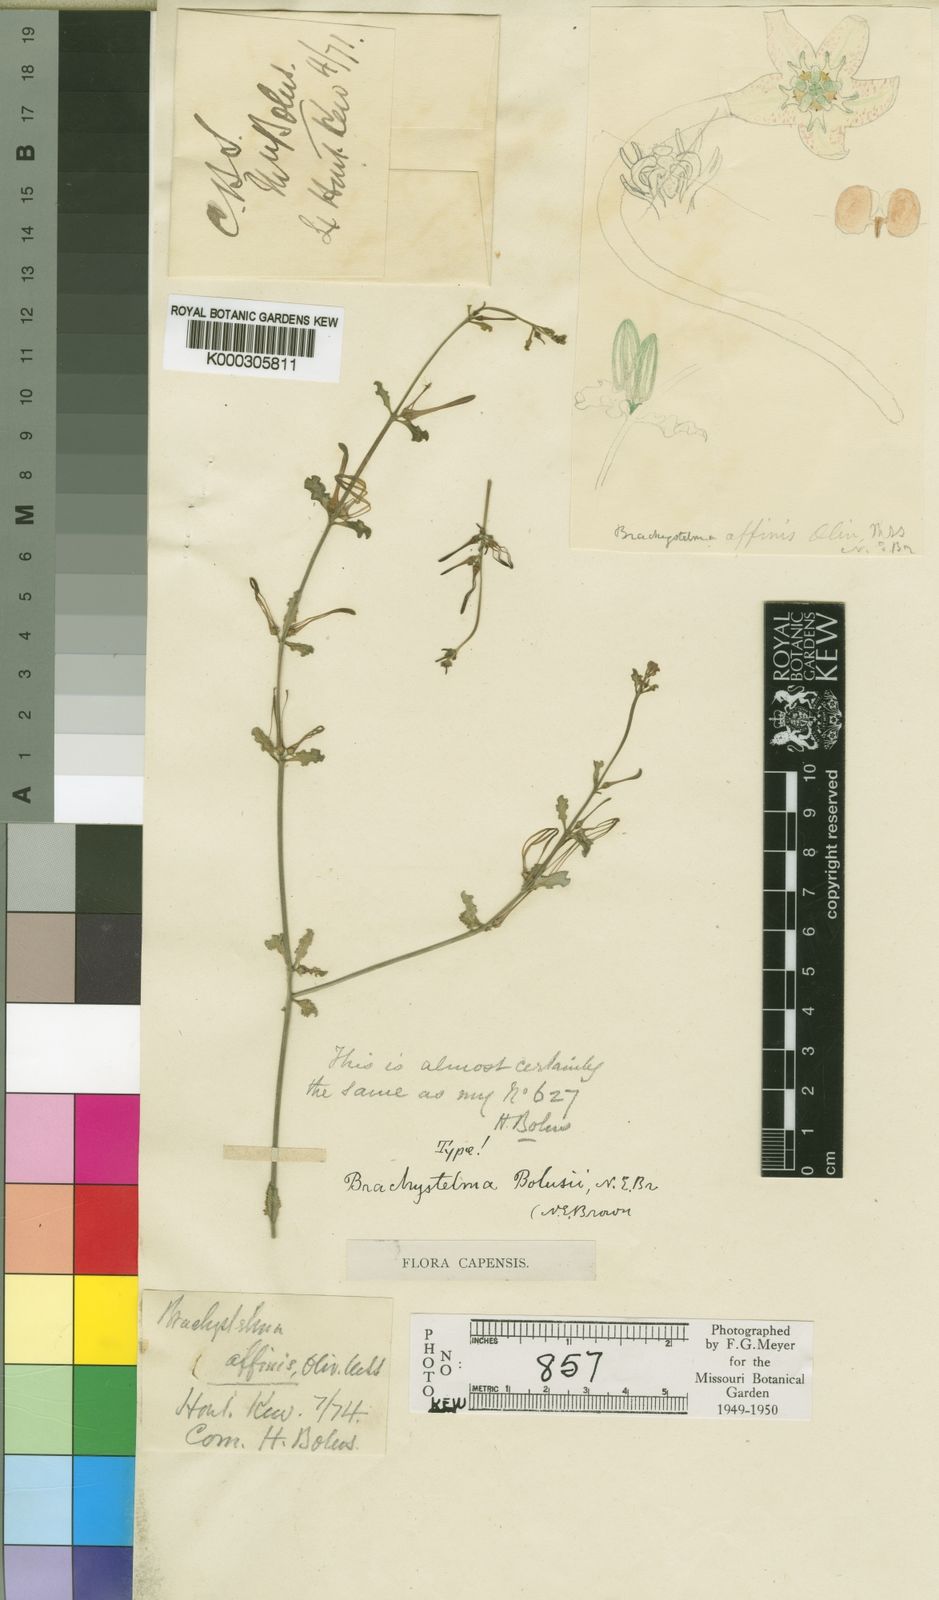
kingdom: Plantae
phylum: Tracheophyta
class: Magnoliopsida
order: Gentianales
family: Apocynaceae
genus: Ceropegia
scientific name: Ceropegia circinata
